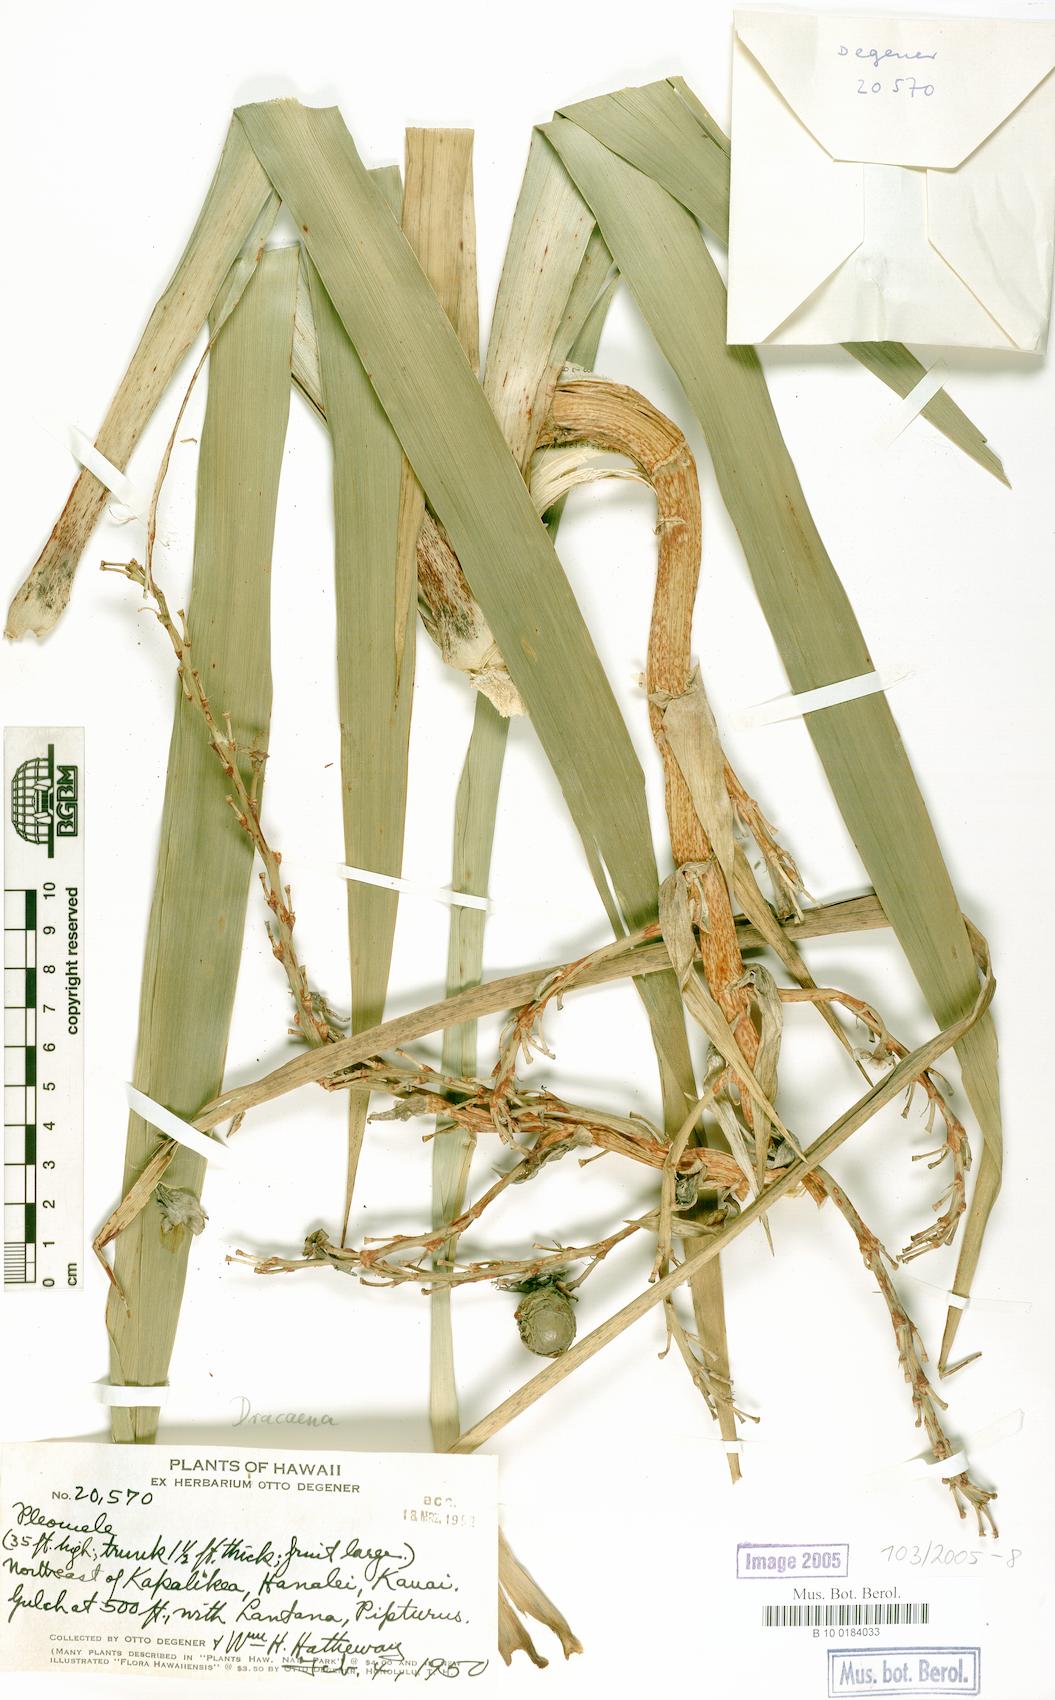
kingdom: Plantae
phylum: Tracheophyta
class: Liliopsida
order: Asparagales
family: Asparagaceae
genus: Dracaena
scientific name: Dracaena
